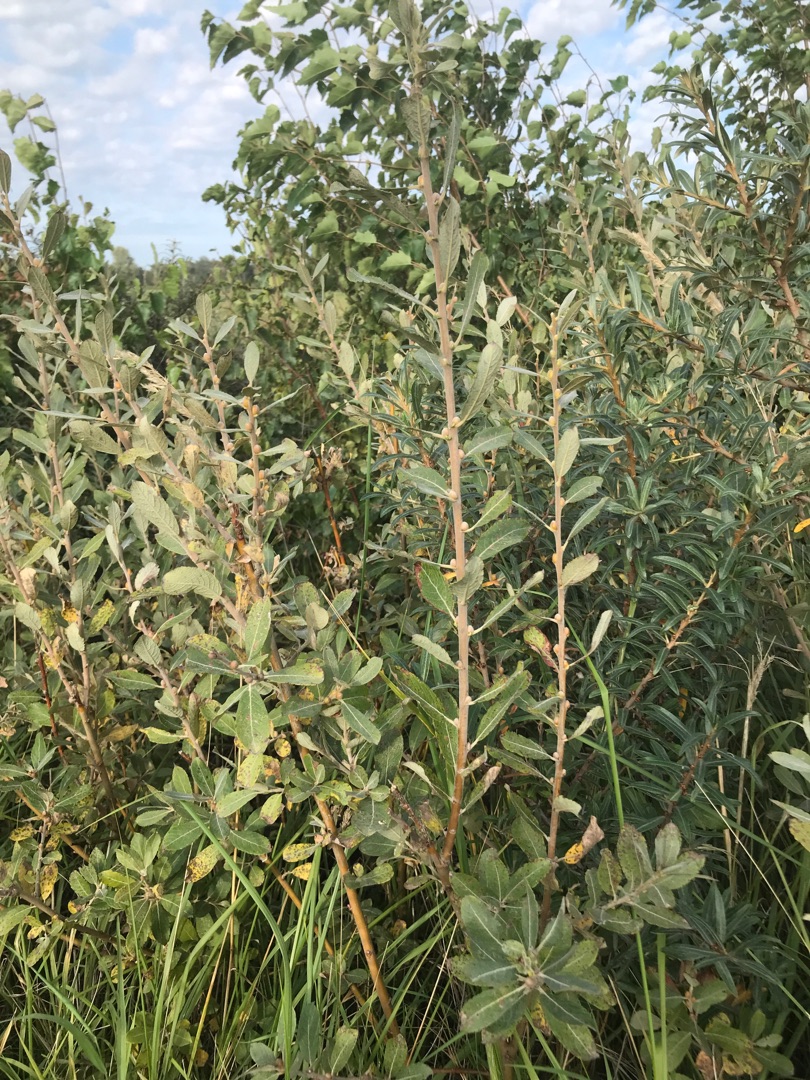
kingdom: Plantae
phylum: Tracheophyta
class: Magnoliopsida
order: Malpighiales
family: Salicaceae
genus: Salix
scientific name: Salix cinerea
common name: Grå-pil
